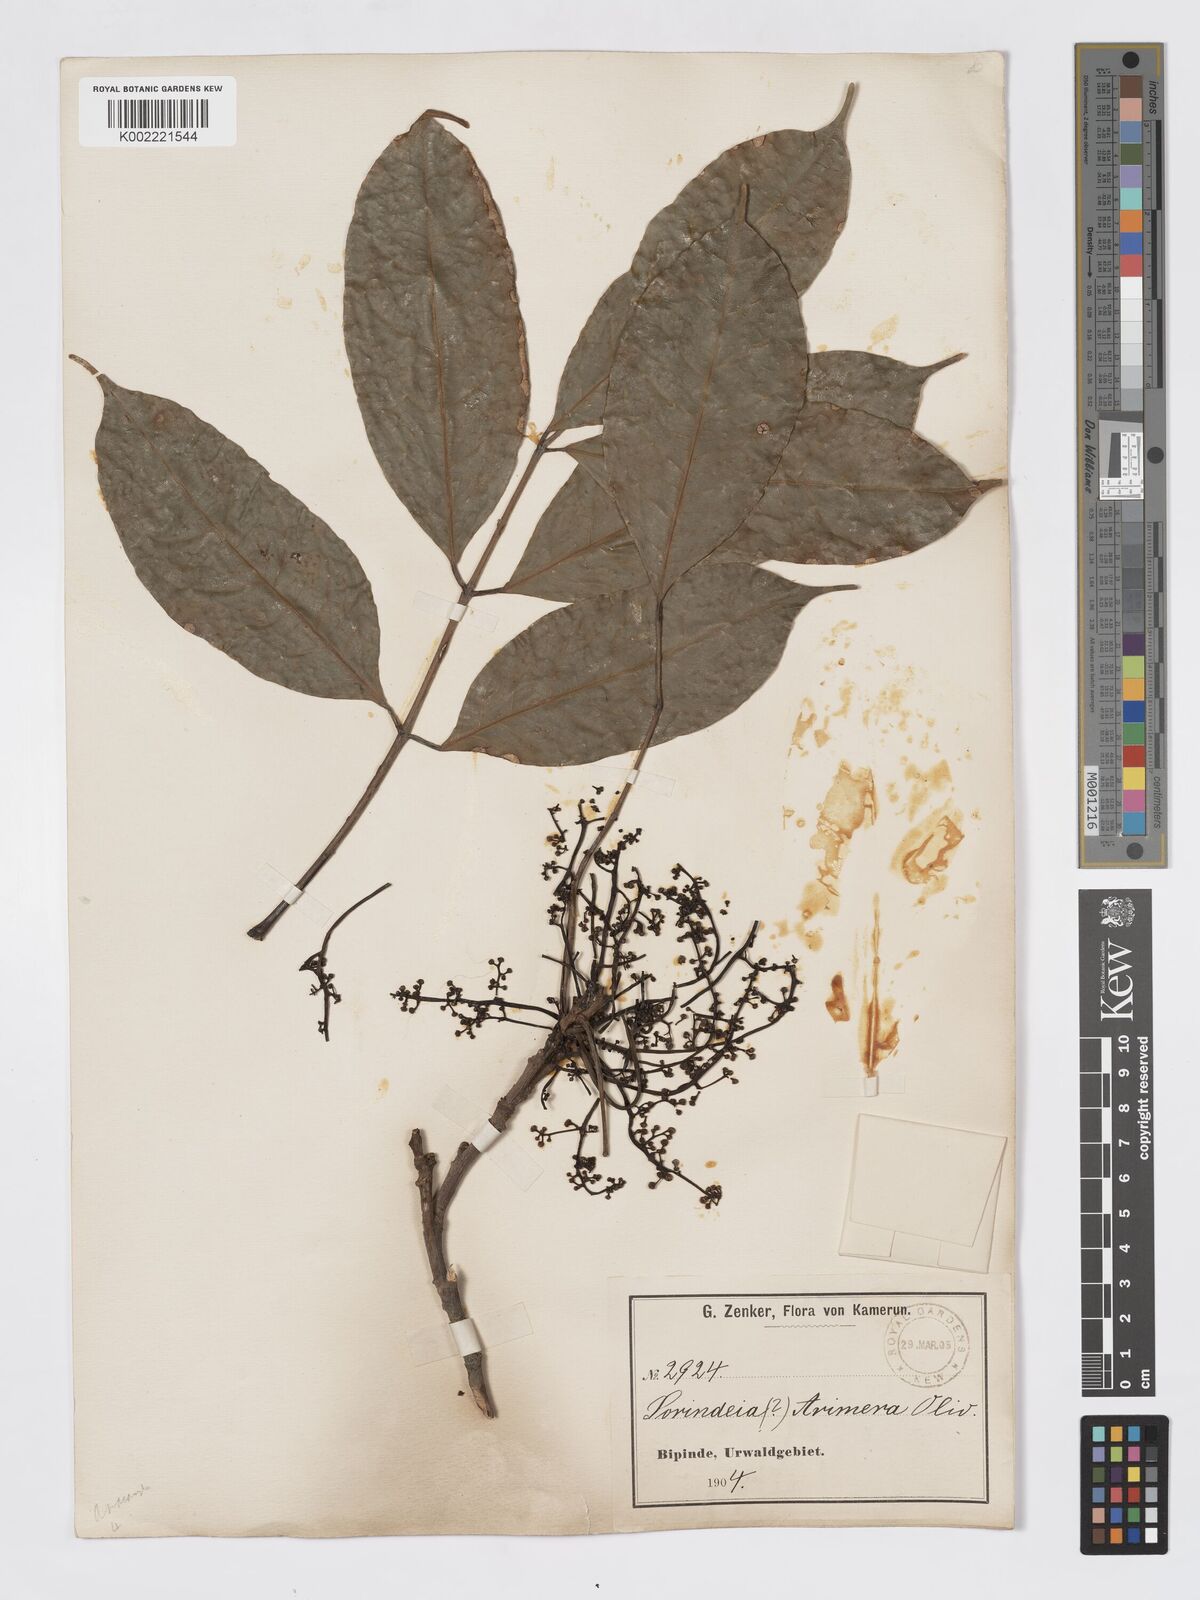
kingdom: Plantae
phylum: Tracheophyta
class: Magnoliopsida
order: Sapindales
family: Burseraceae
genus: Pachylobus
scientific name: Pachylobus trimerus
